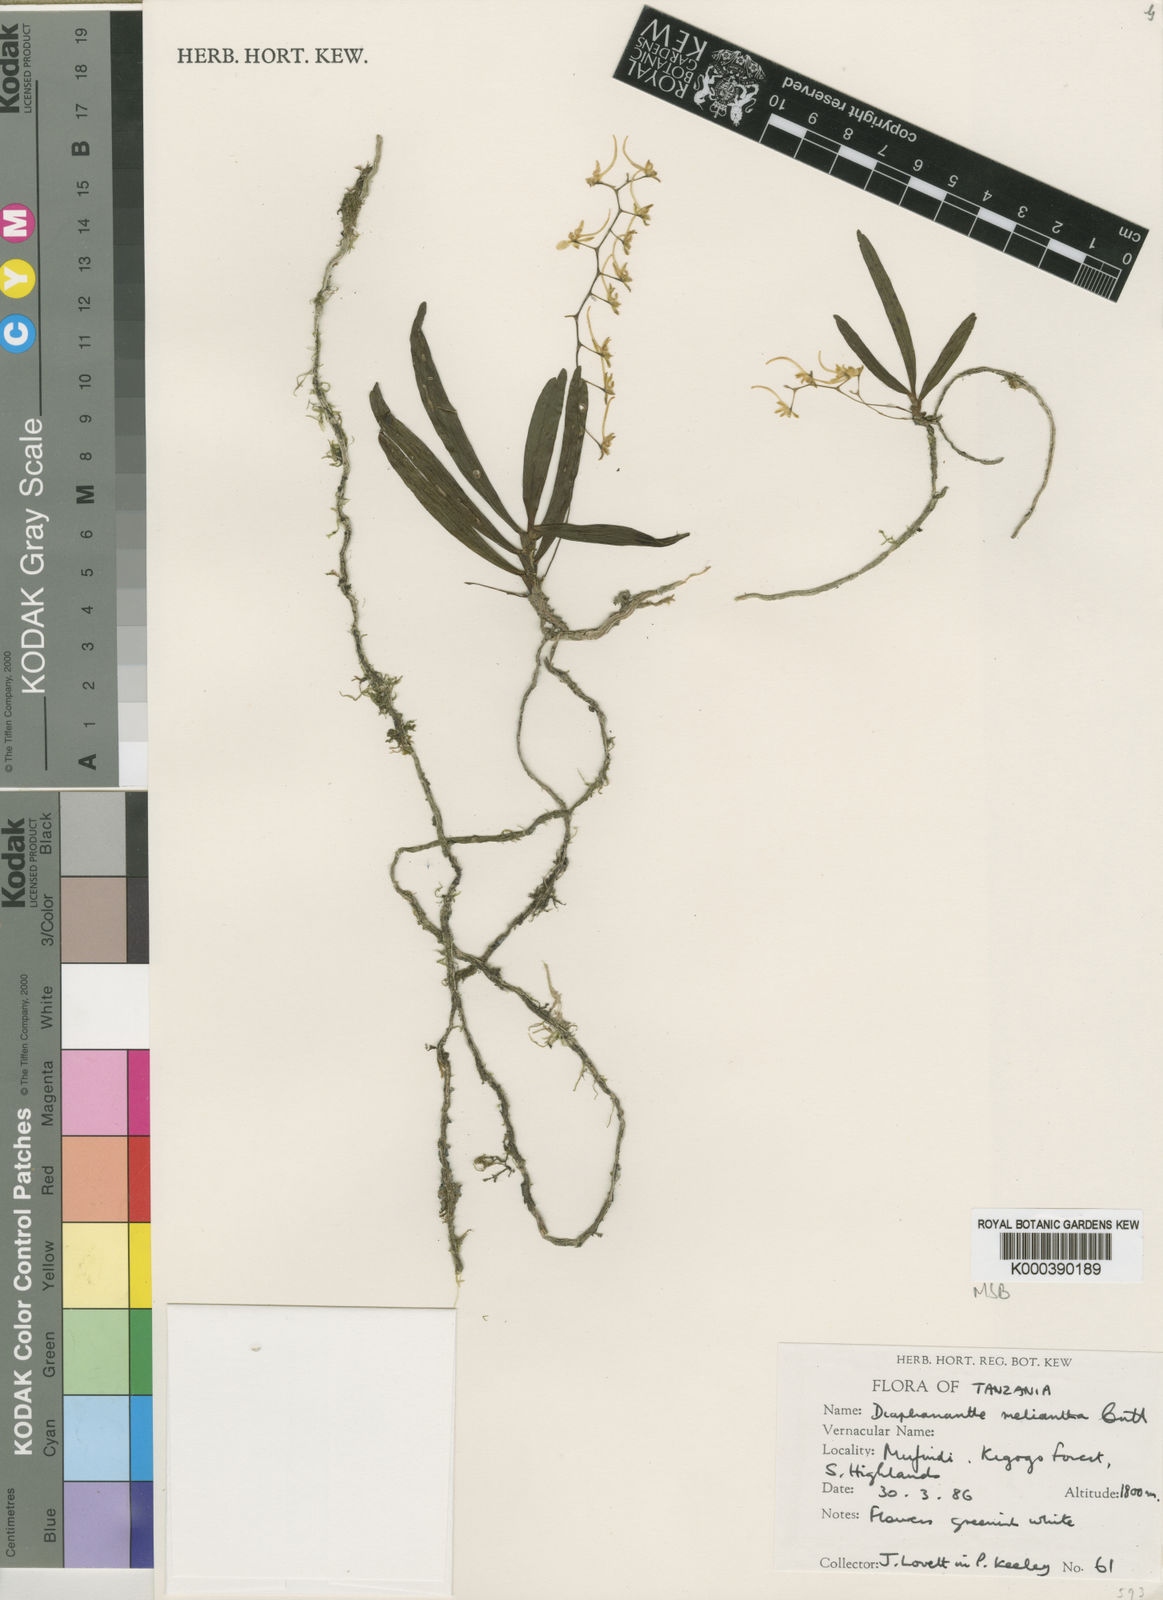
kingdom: Plantae
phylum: Tracheophyta
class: Liliopsida
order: Asparagales
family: Orchidaceae
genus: Rhipidoglossum
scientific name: Rhipidoglossum melianthum
